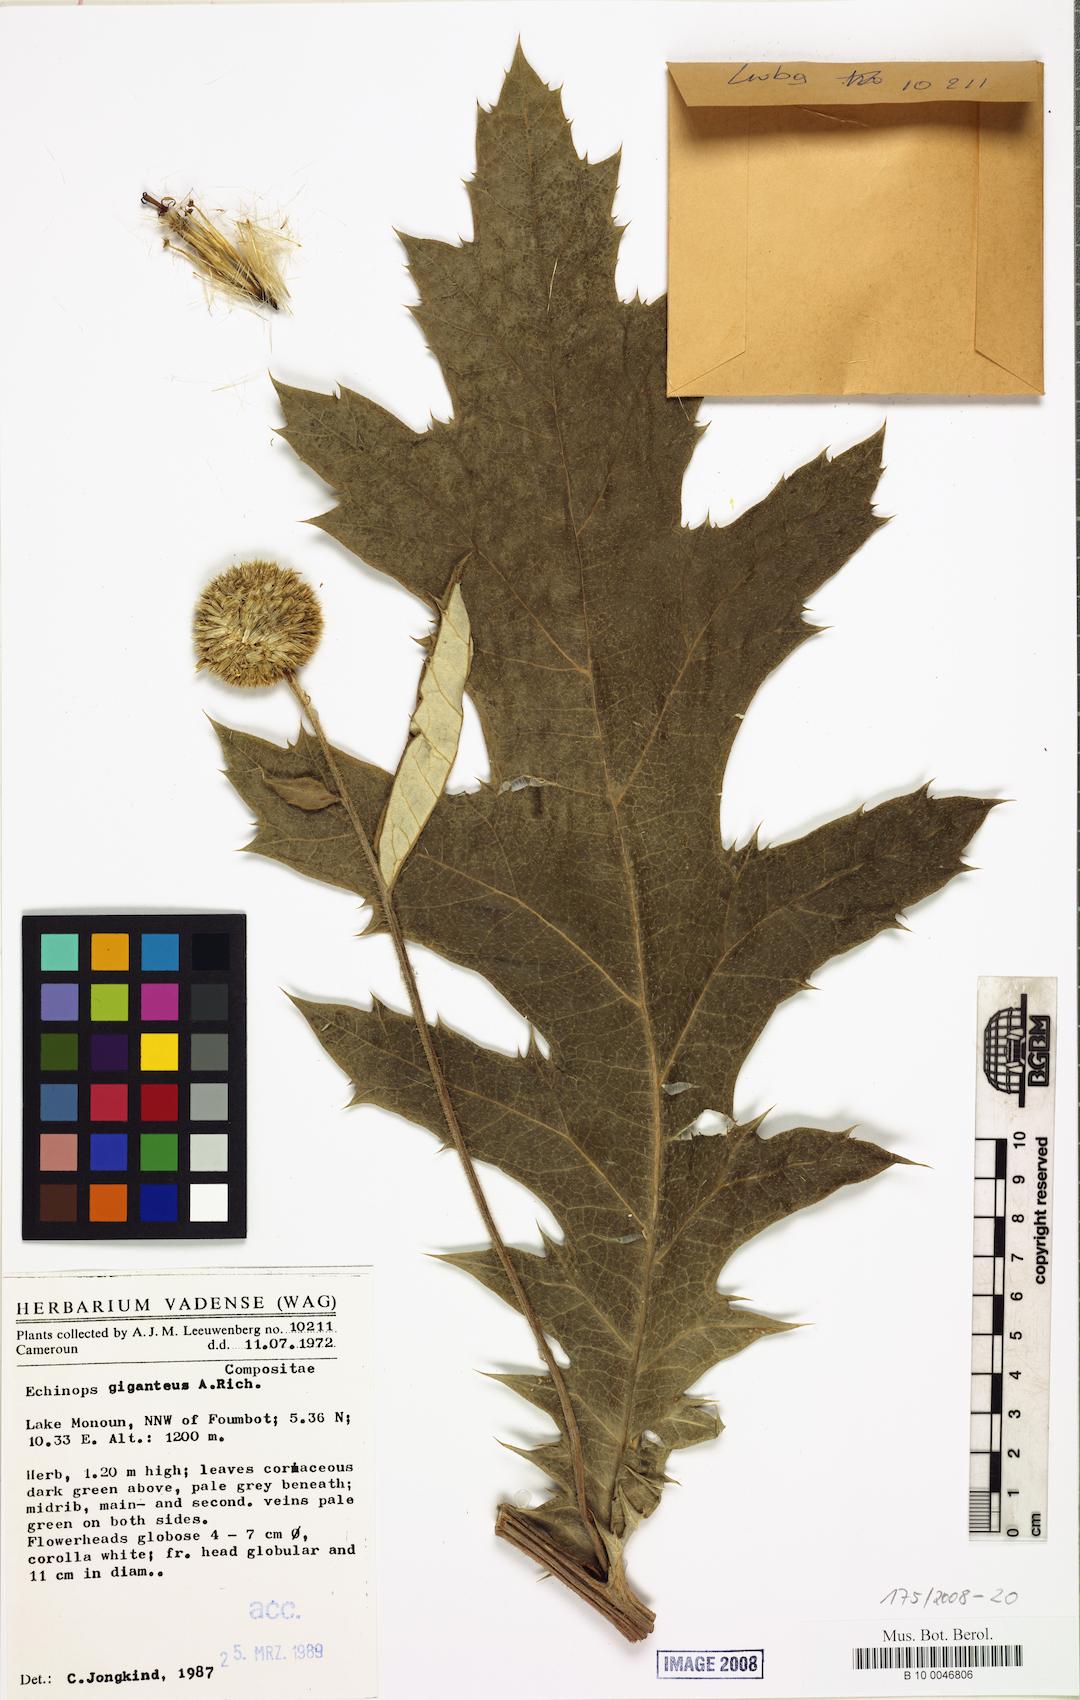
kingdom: Plantae
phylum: Tracheophyta
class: Magnoliopsida
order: Asterales
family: Asteraceae
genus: Echinops
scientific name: Echinops giganteus
